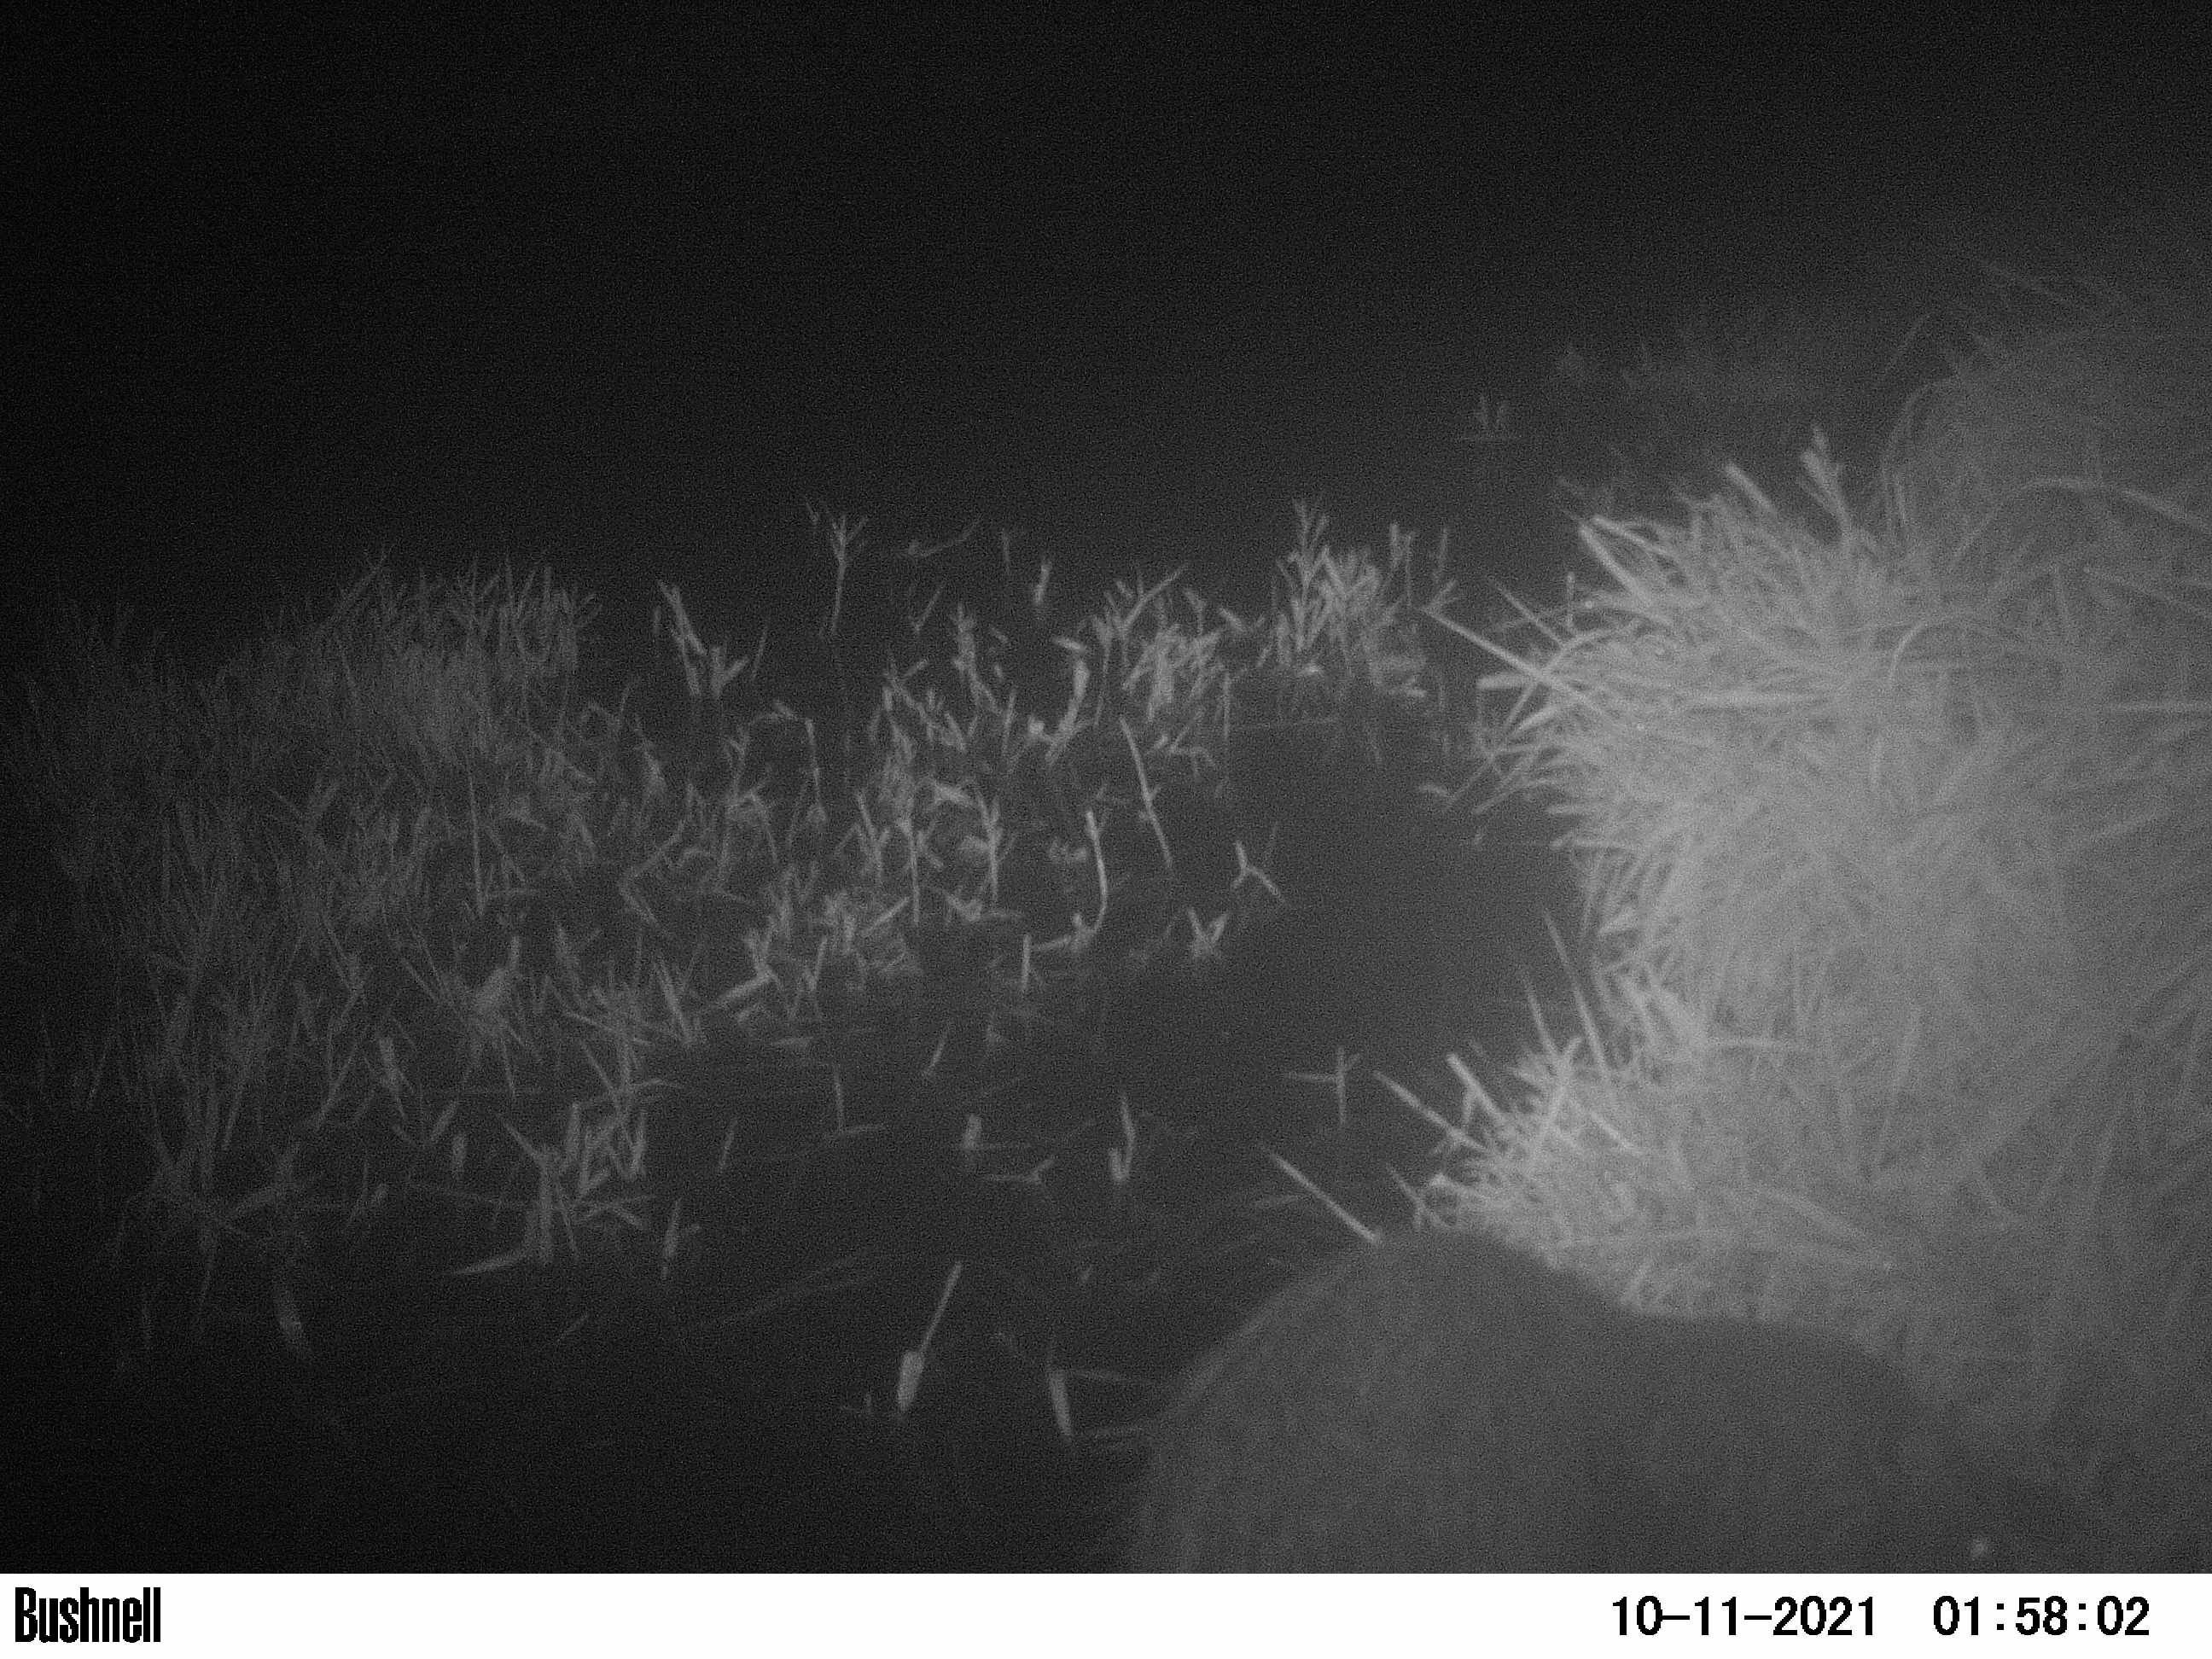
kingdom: Animalia
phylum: Chordata
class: Mammalia
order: Rodentia
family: Myocastoridae
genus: Myocastor
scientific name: Myocastor coypus
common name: Coypu
